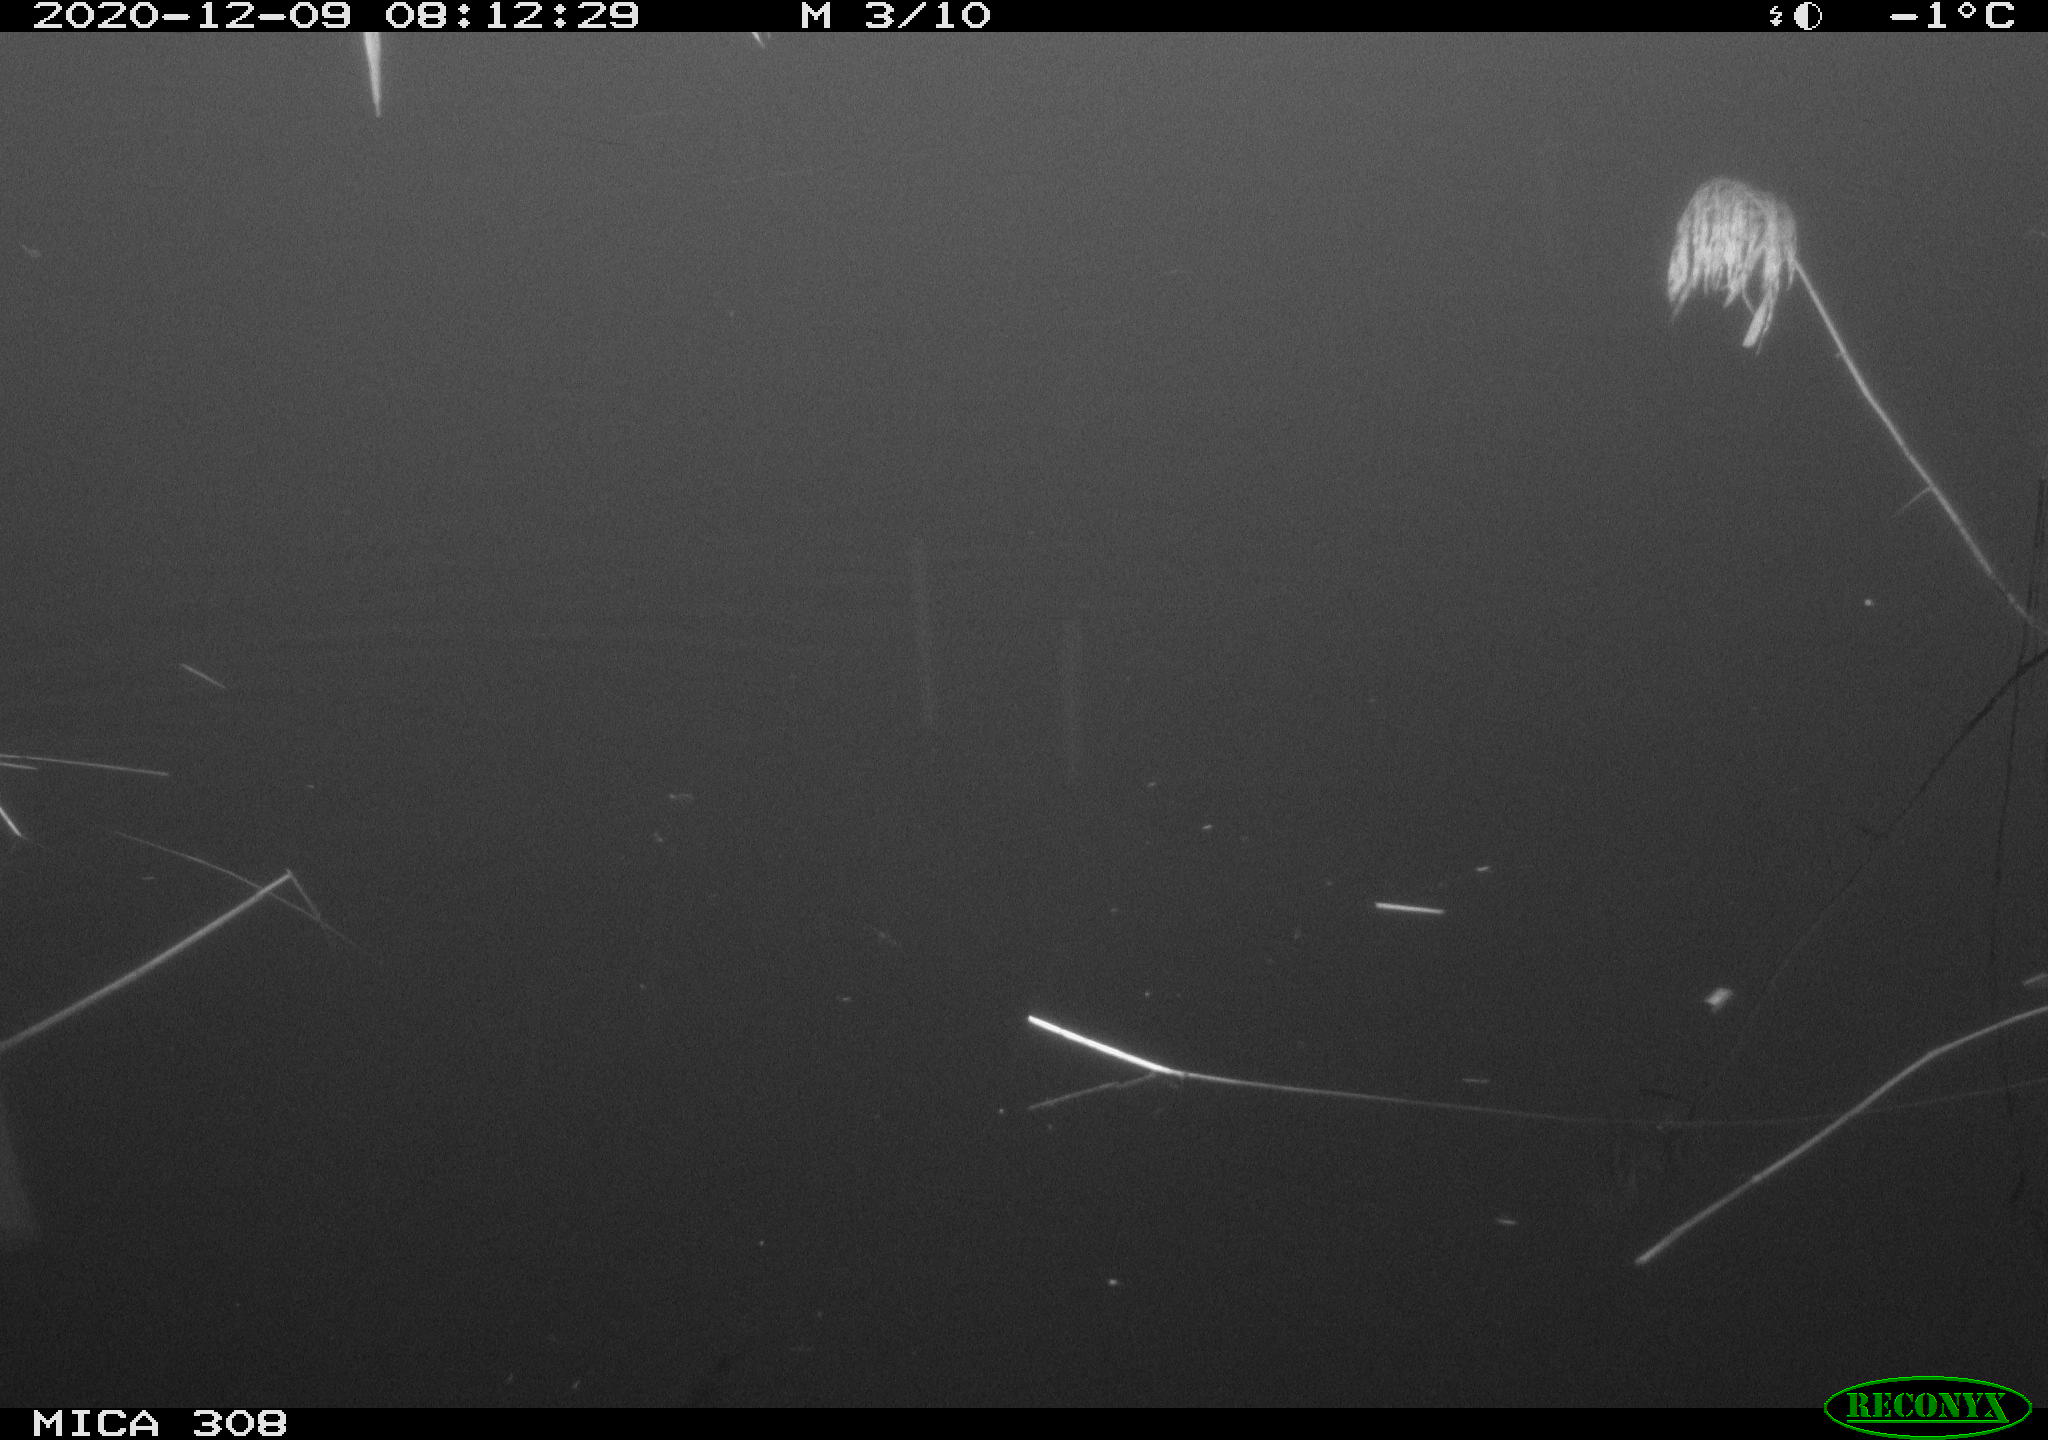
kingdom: Animalia
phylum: Chordata
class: Aves
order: Gruiformes
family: Rallidae
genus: Gallinula
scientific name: Gallinula chloropus
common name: Common moorhen
